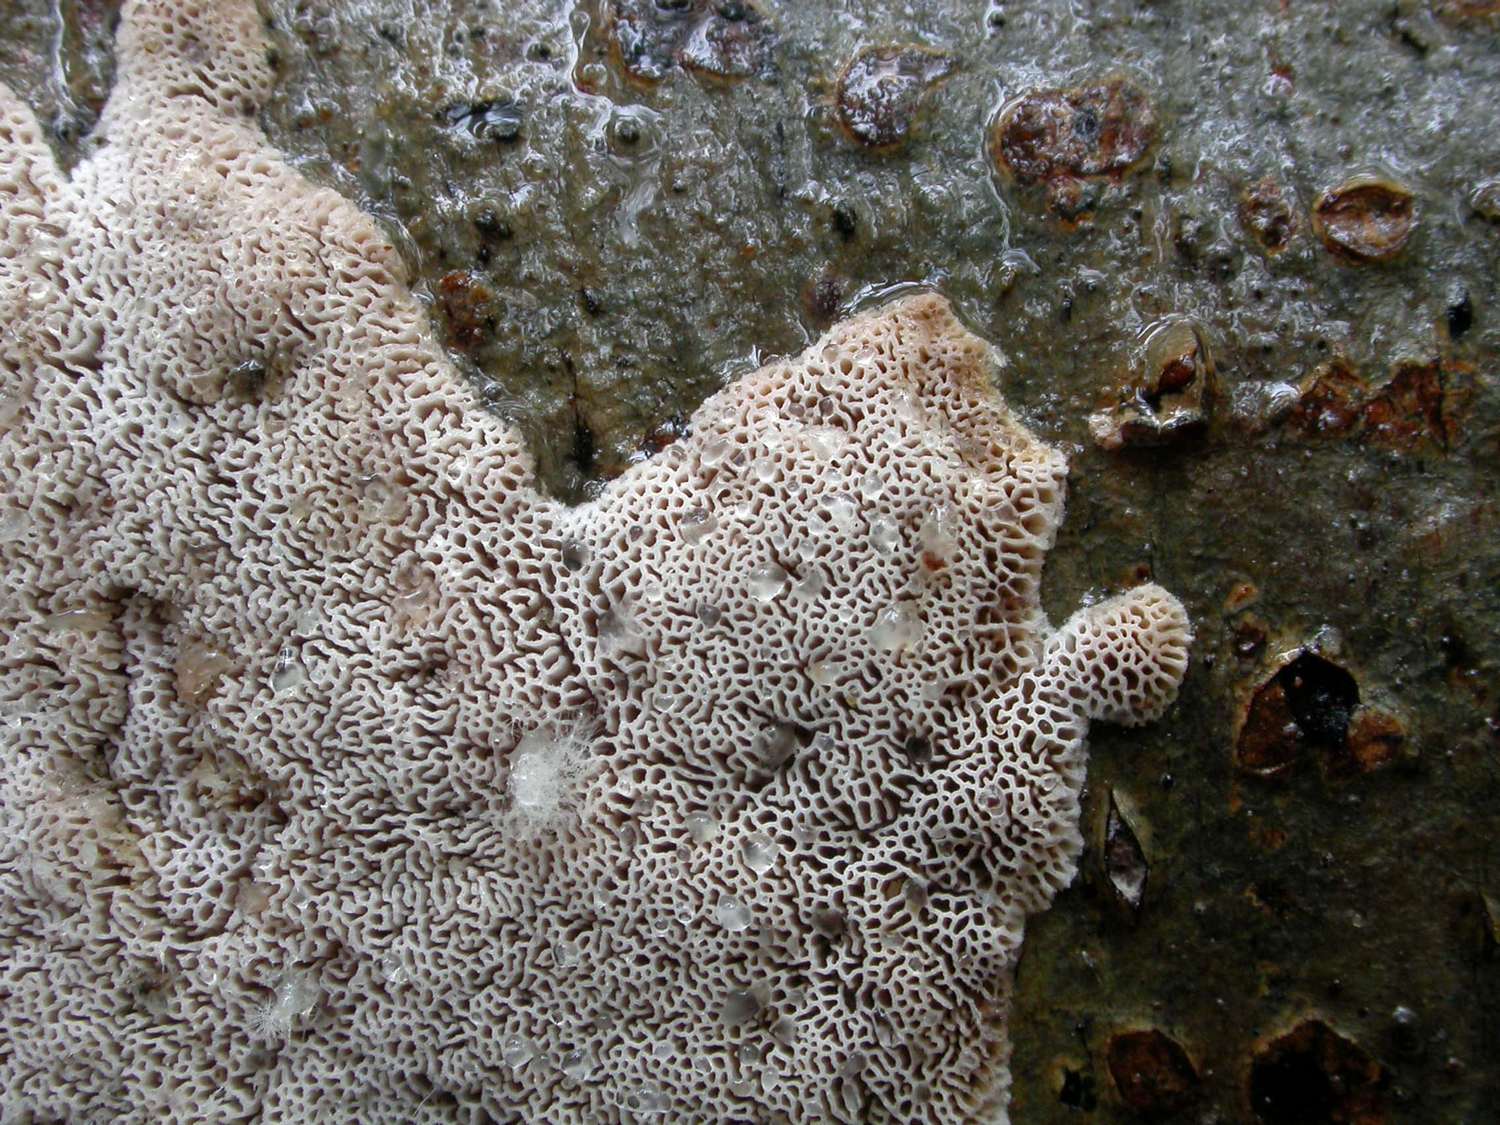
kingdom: Fungi
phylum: Basidiomycota
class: Agaricomycetes
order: Polyporales
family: Irpicaceae
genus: Ceriporia
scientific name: Ceriporia viridans
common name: foranderlig voksporesvamp
